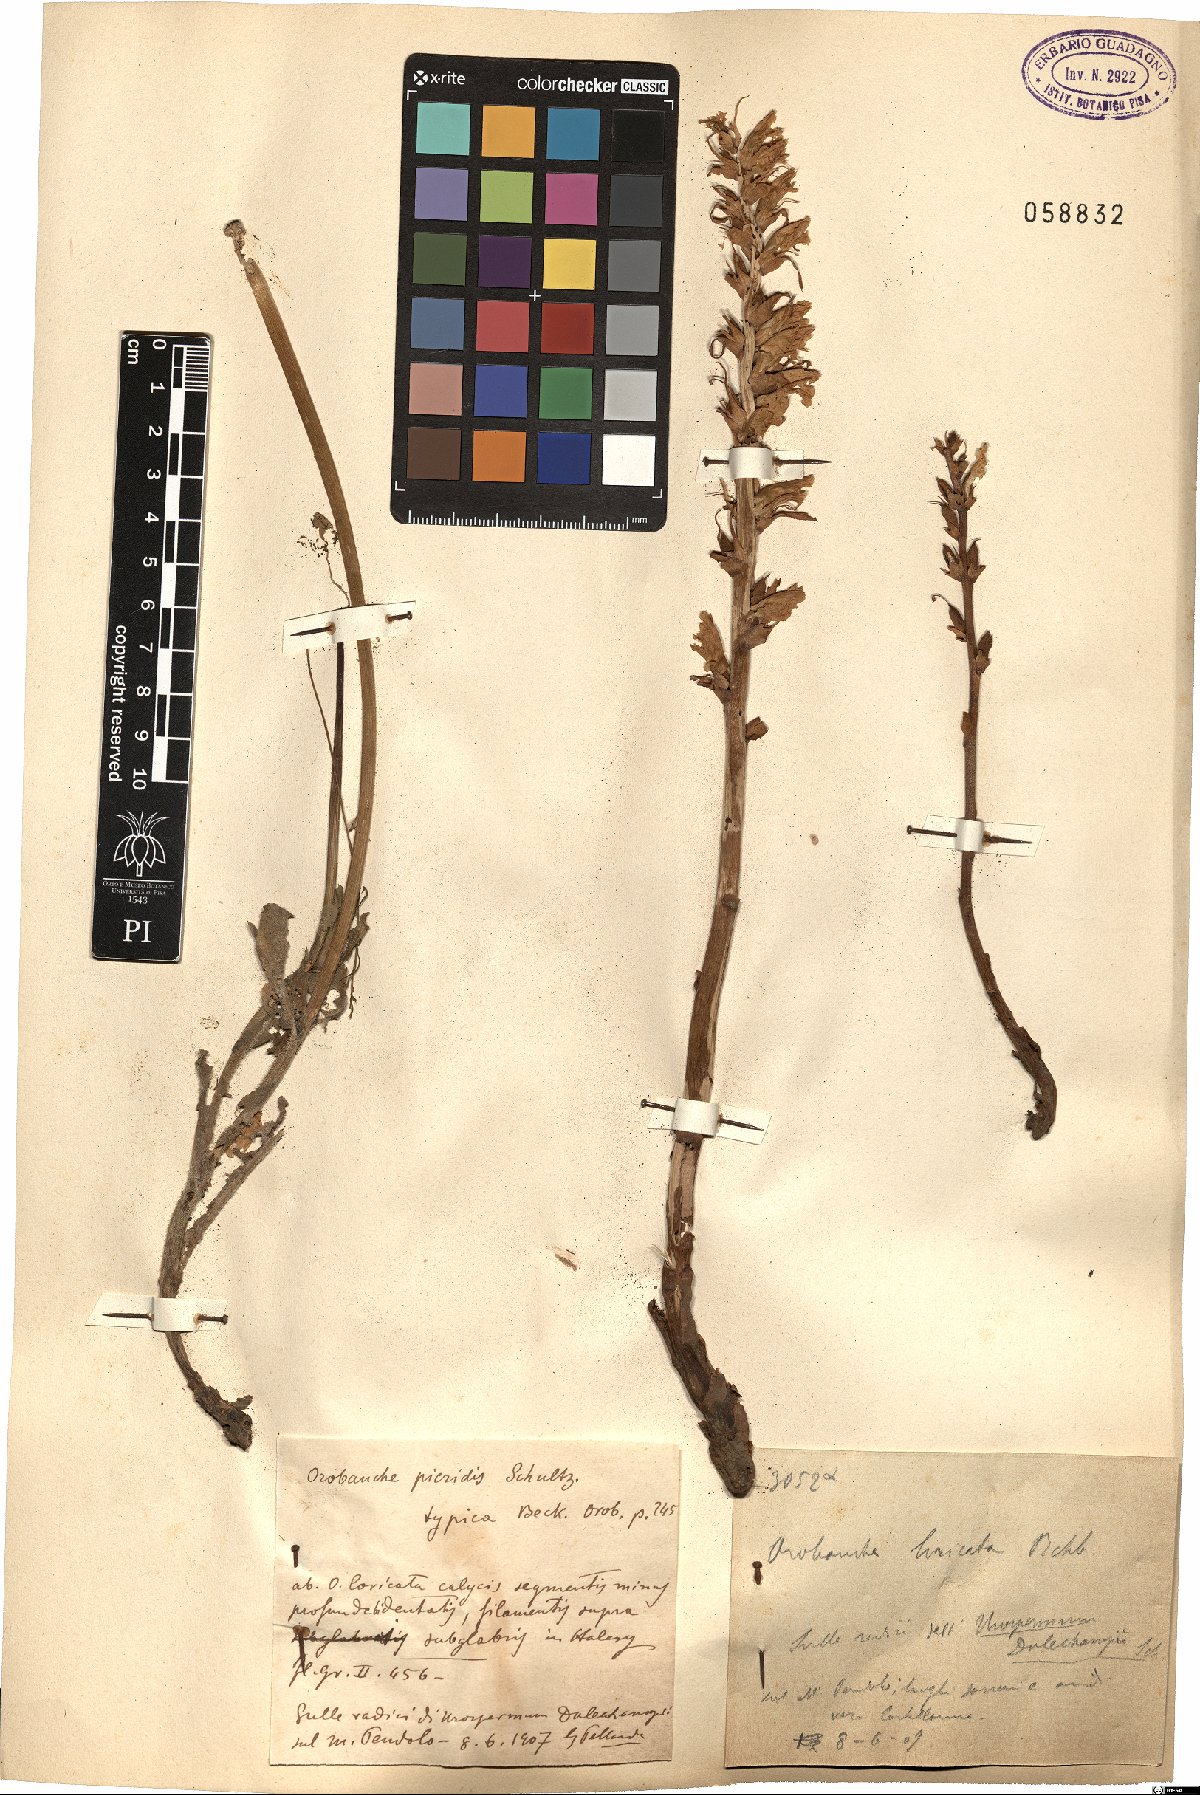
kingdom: Plantae
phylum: Tracheophyta
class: Magnoliopsida
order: Lamiales
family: Orobanchaceae
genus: Orobanche
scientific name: Orobanche picridis
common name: Oxtongue broomrape
